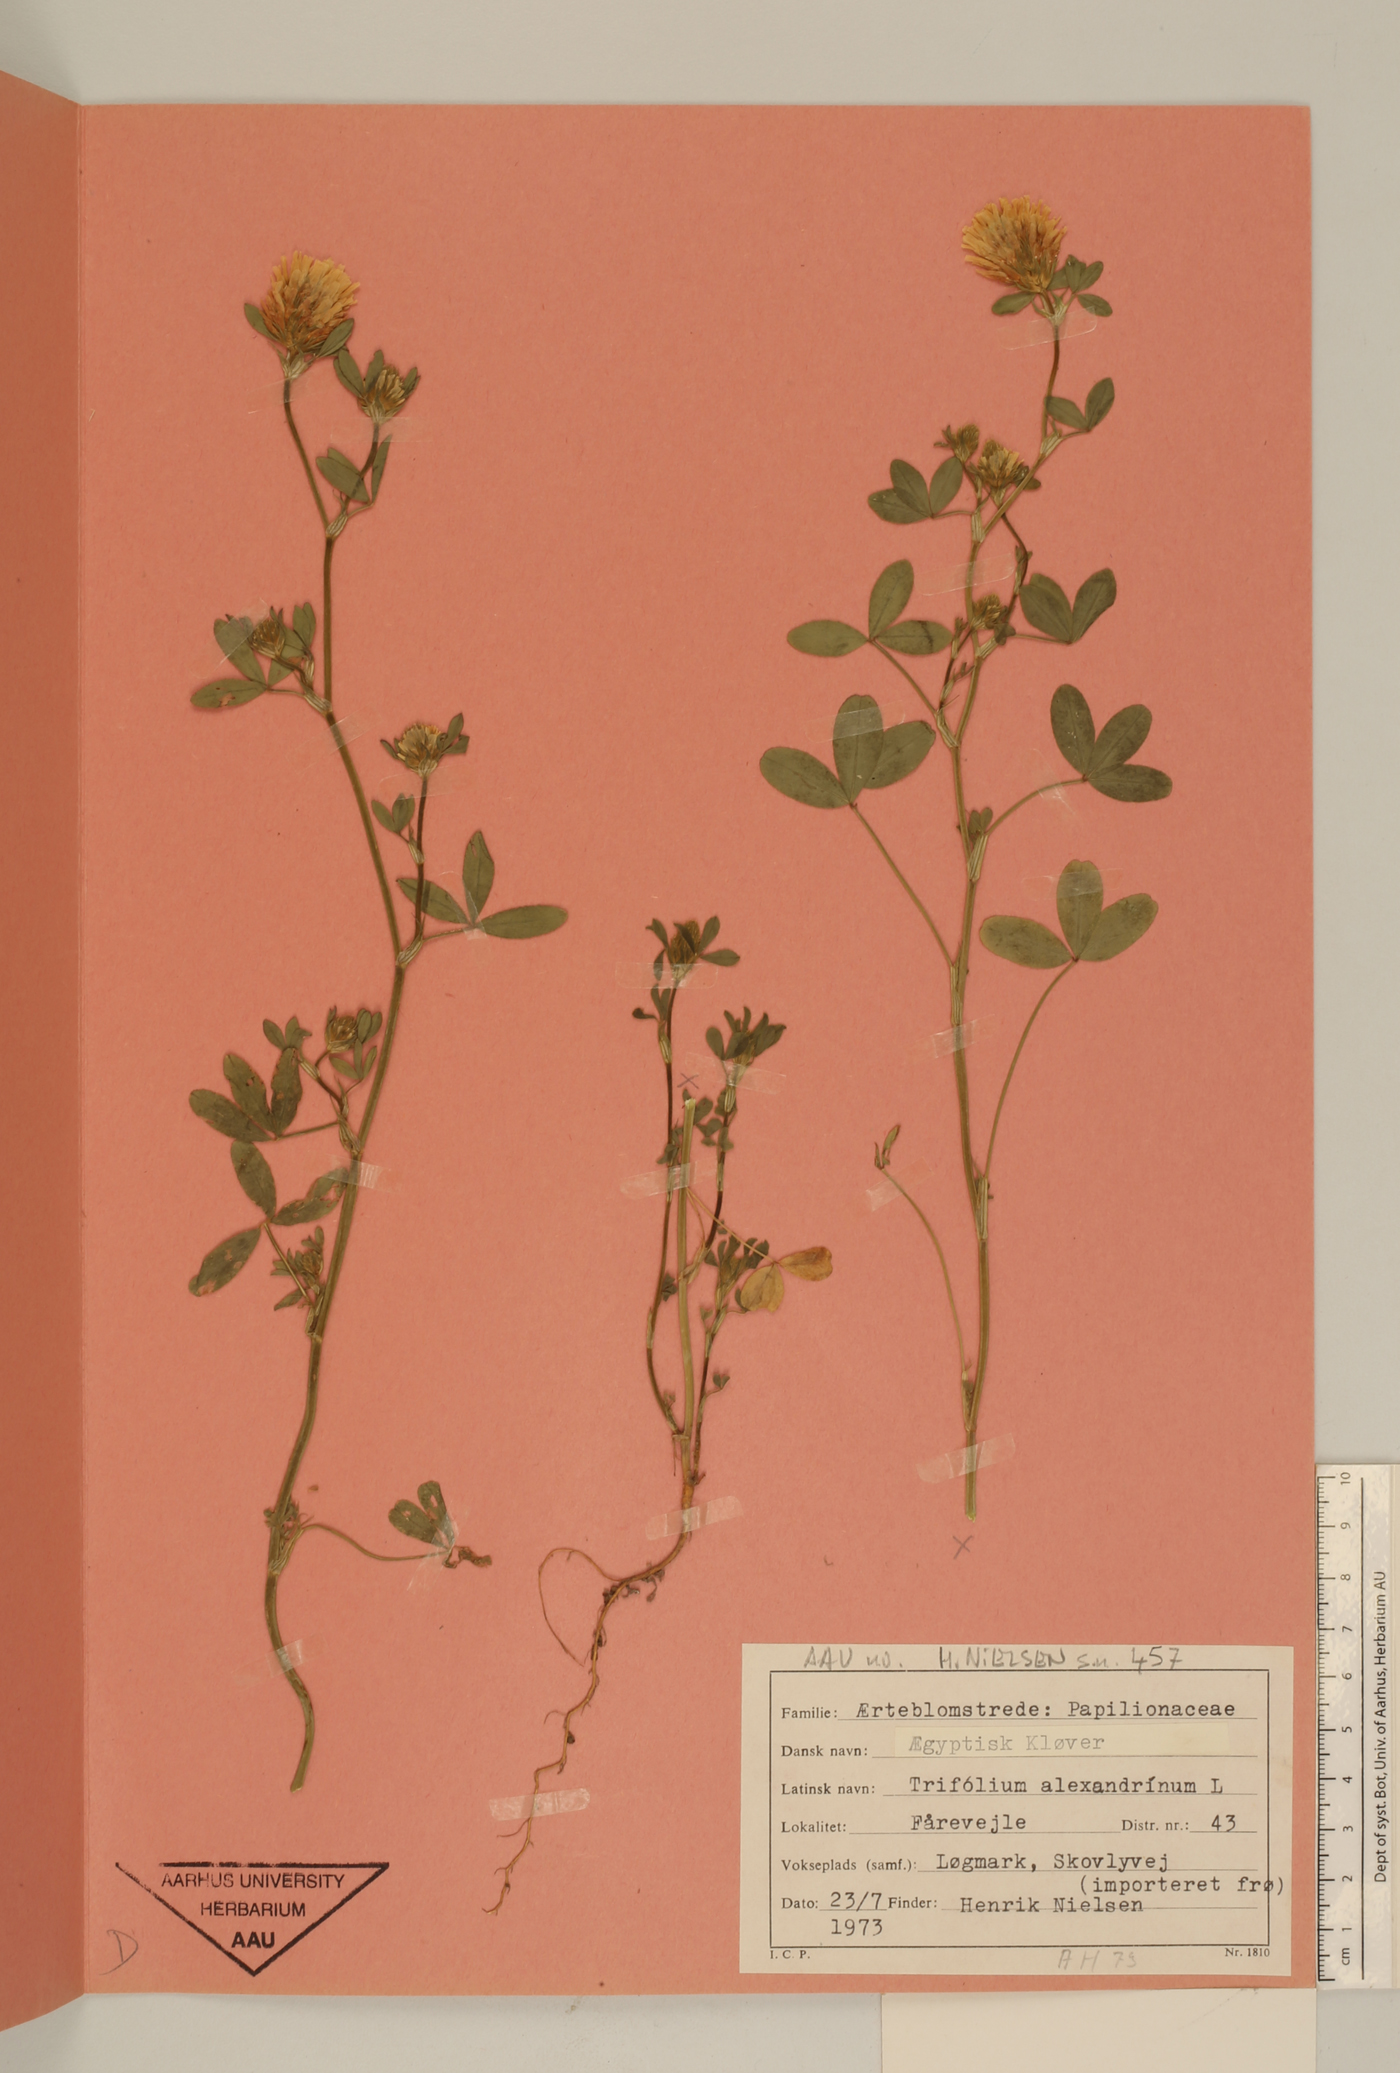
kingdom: Plantae
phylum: Tracheophyta
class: Magnoliopsida
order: Fabales
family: Fabaceae
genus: Trifolium
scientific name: Trifolium alexandrinum
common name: Egyptian clover
